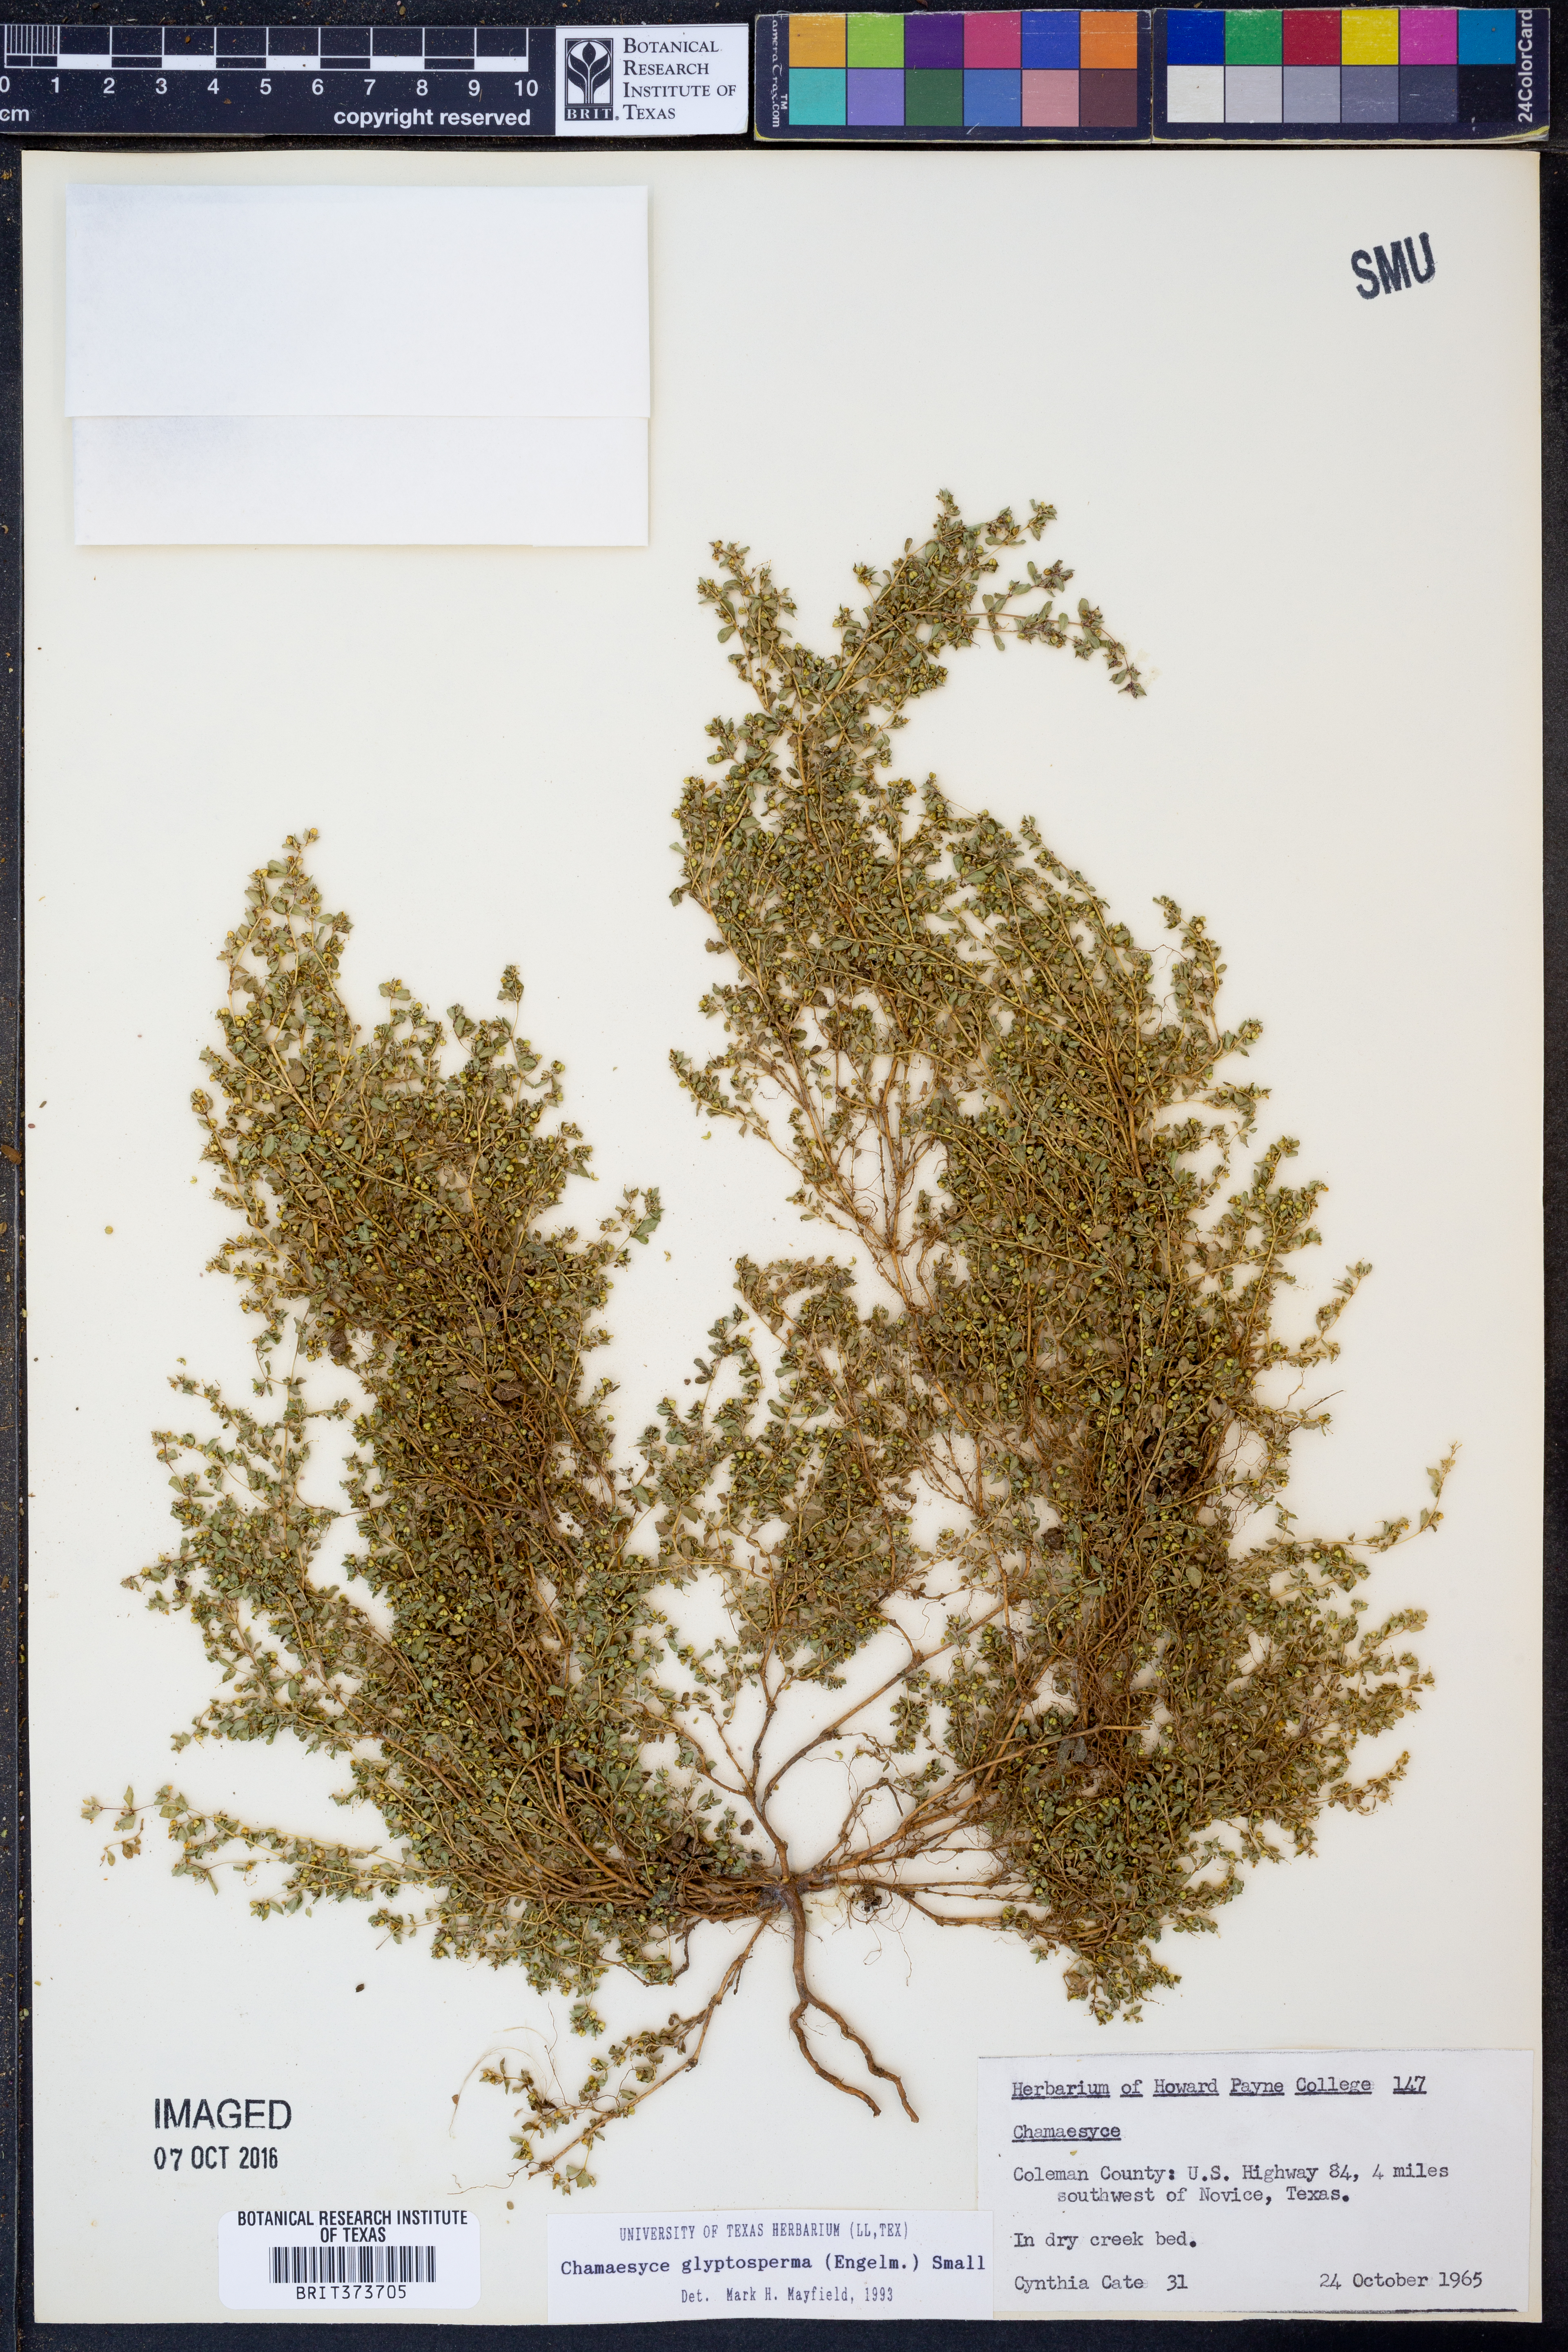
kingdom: Plantae
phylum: Tracheophyta
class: Magnoliopsida
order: Malpighiales
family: Euphorbiaceae
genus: Euphorbia
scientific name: Euphorbia glyptosperma
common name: Corrugate-seeded spurge
